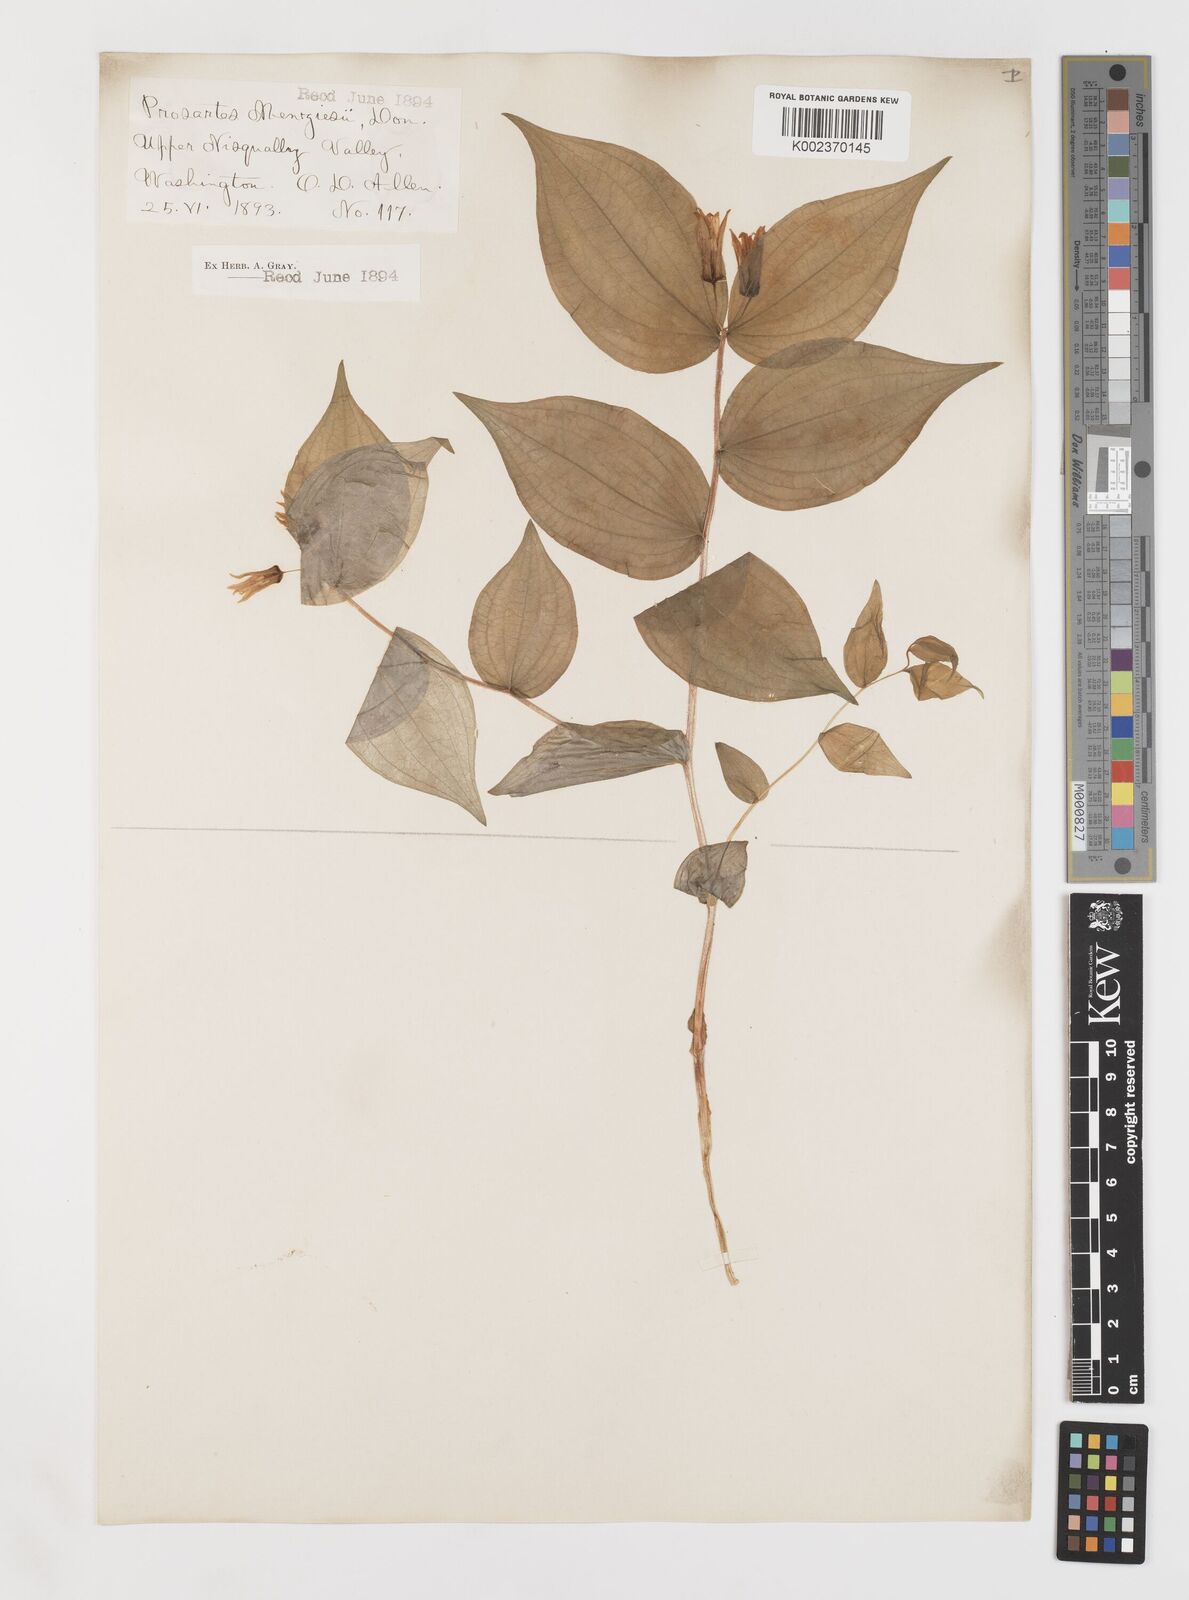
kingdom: Plantae
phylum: Tracheophyta
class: Liliopsida
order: Liliales
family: Liliaceae
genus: Prosartes
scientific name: Prosartes smithii
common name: Fairy-lantern
